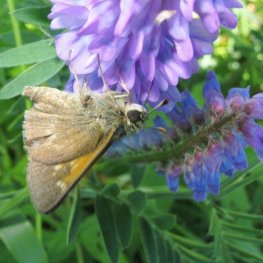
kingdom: Animalia
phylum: Arthropoda
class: Insecta
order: Lepidoptera
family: Hesperiidae
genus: Polites
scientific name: Polites themistocles
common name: Tawny-edged Skipper
